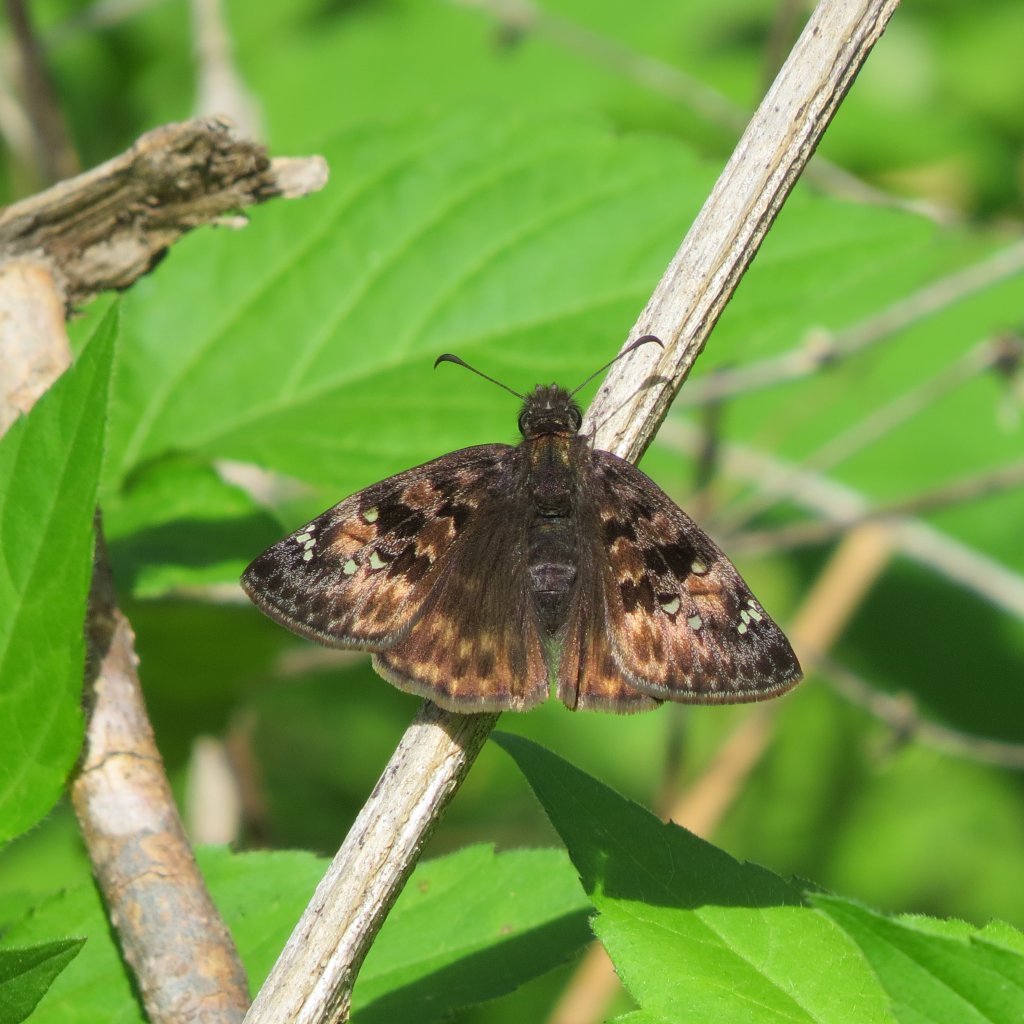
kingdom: Animalia
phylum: Arthropoda
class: Insecta
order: Lepidoptera
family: Hesperiidae
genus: Gesta
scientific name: Gesta
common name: Horace's Duskywing
